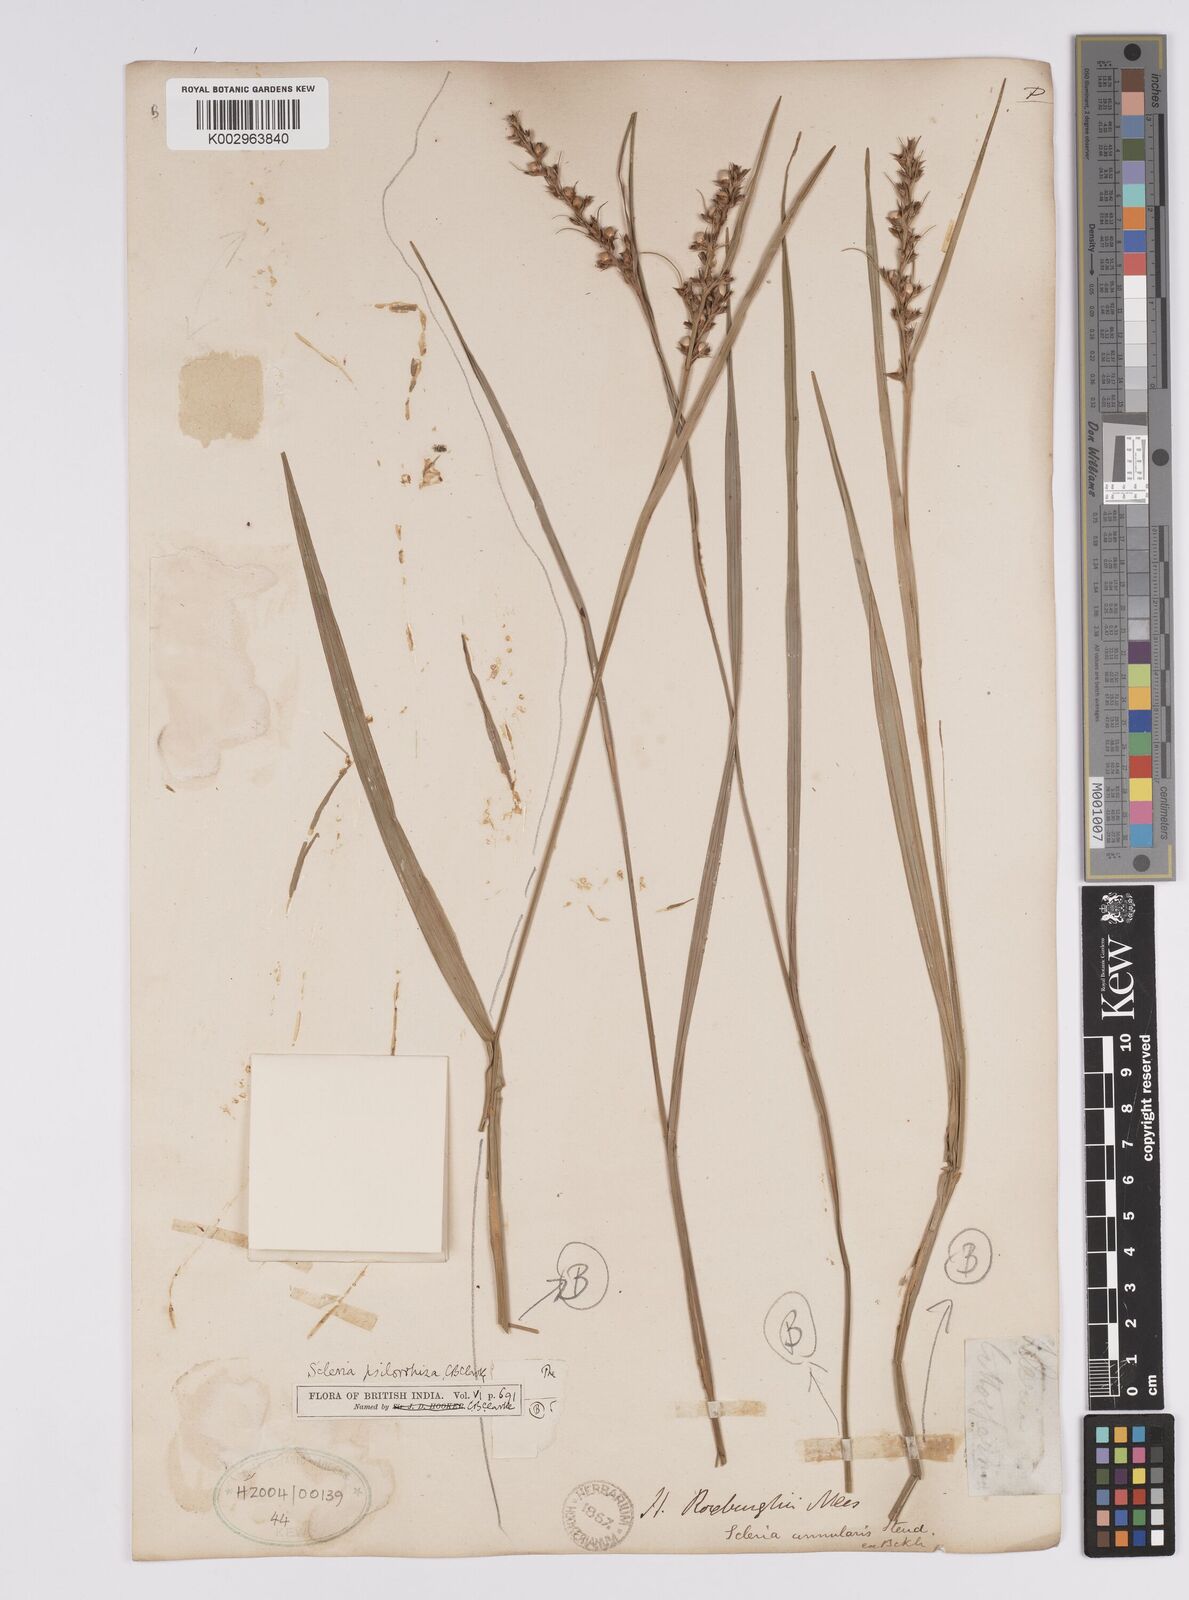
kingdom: Plantae
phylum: Tracheophyta
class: Liliopsida
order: Poales
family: Cyperaceae
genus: Scleria
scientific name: Scleria psilorrhiza
